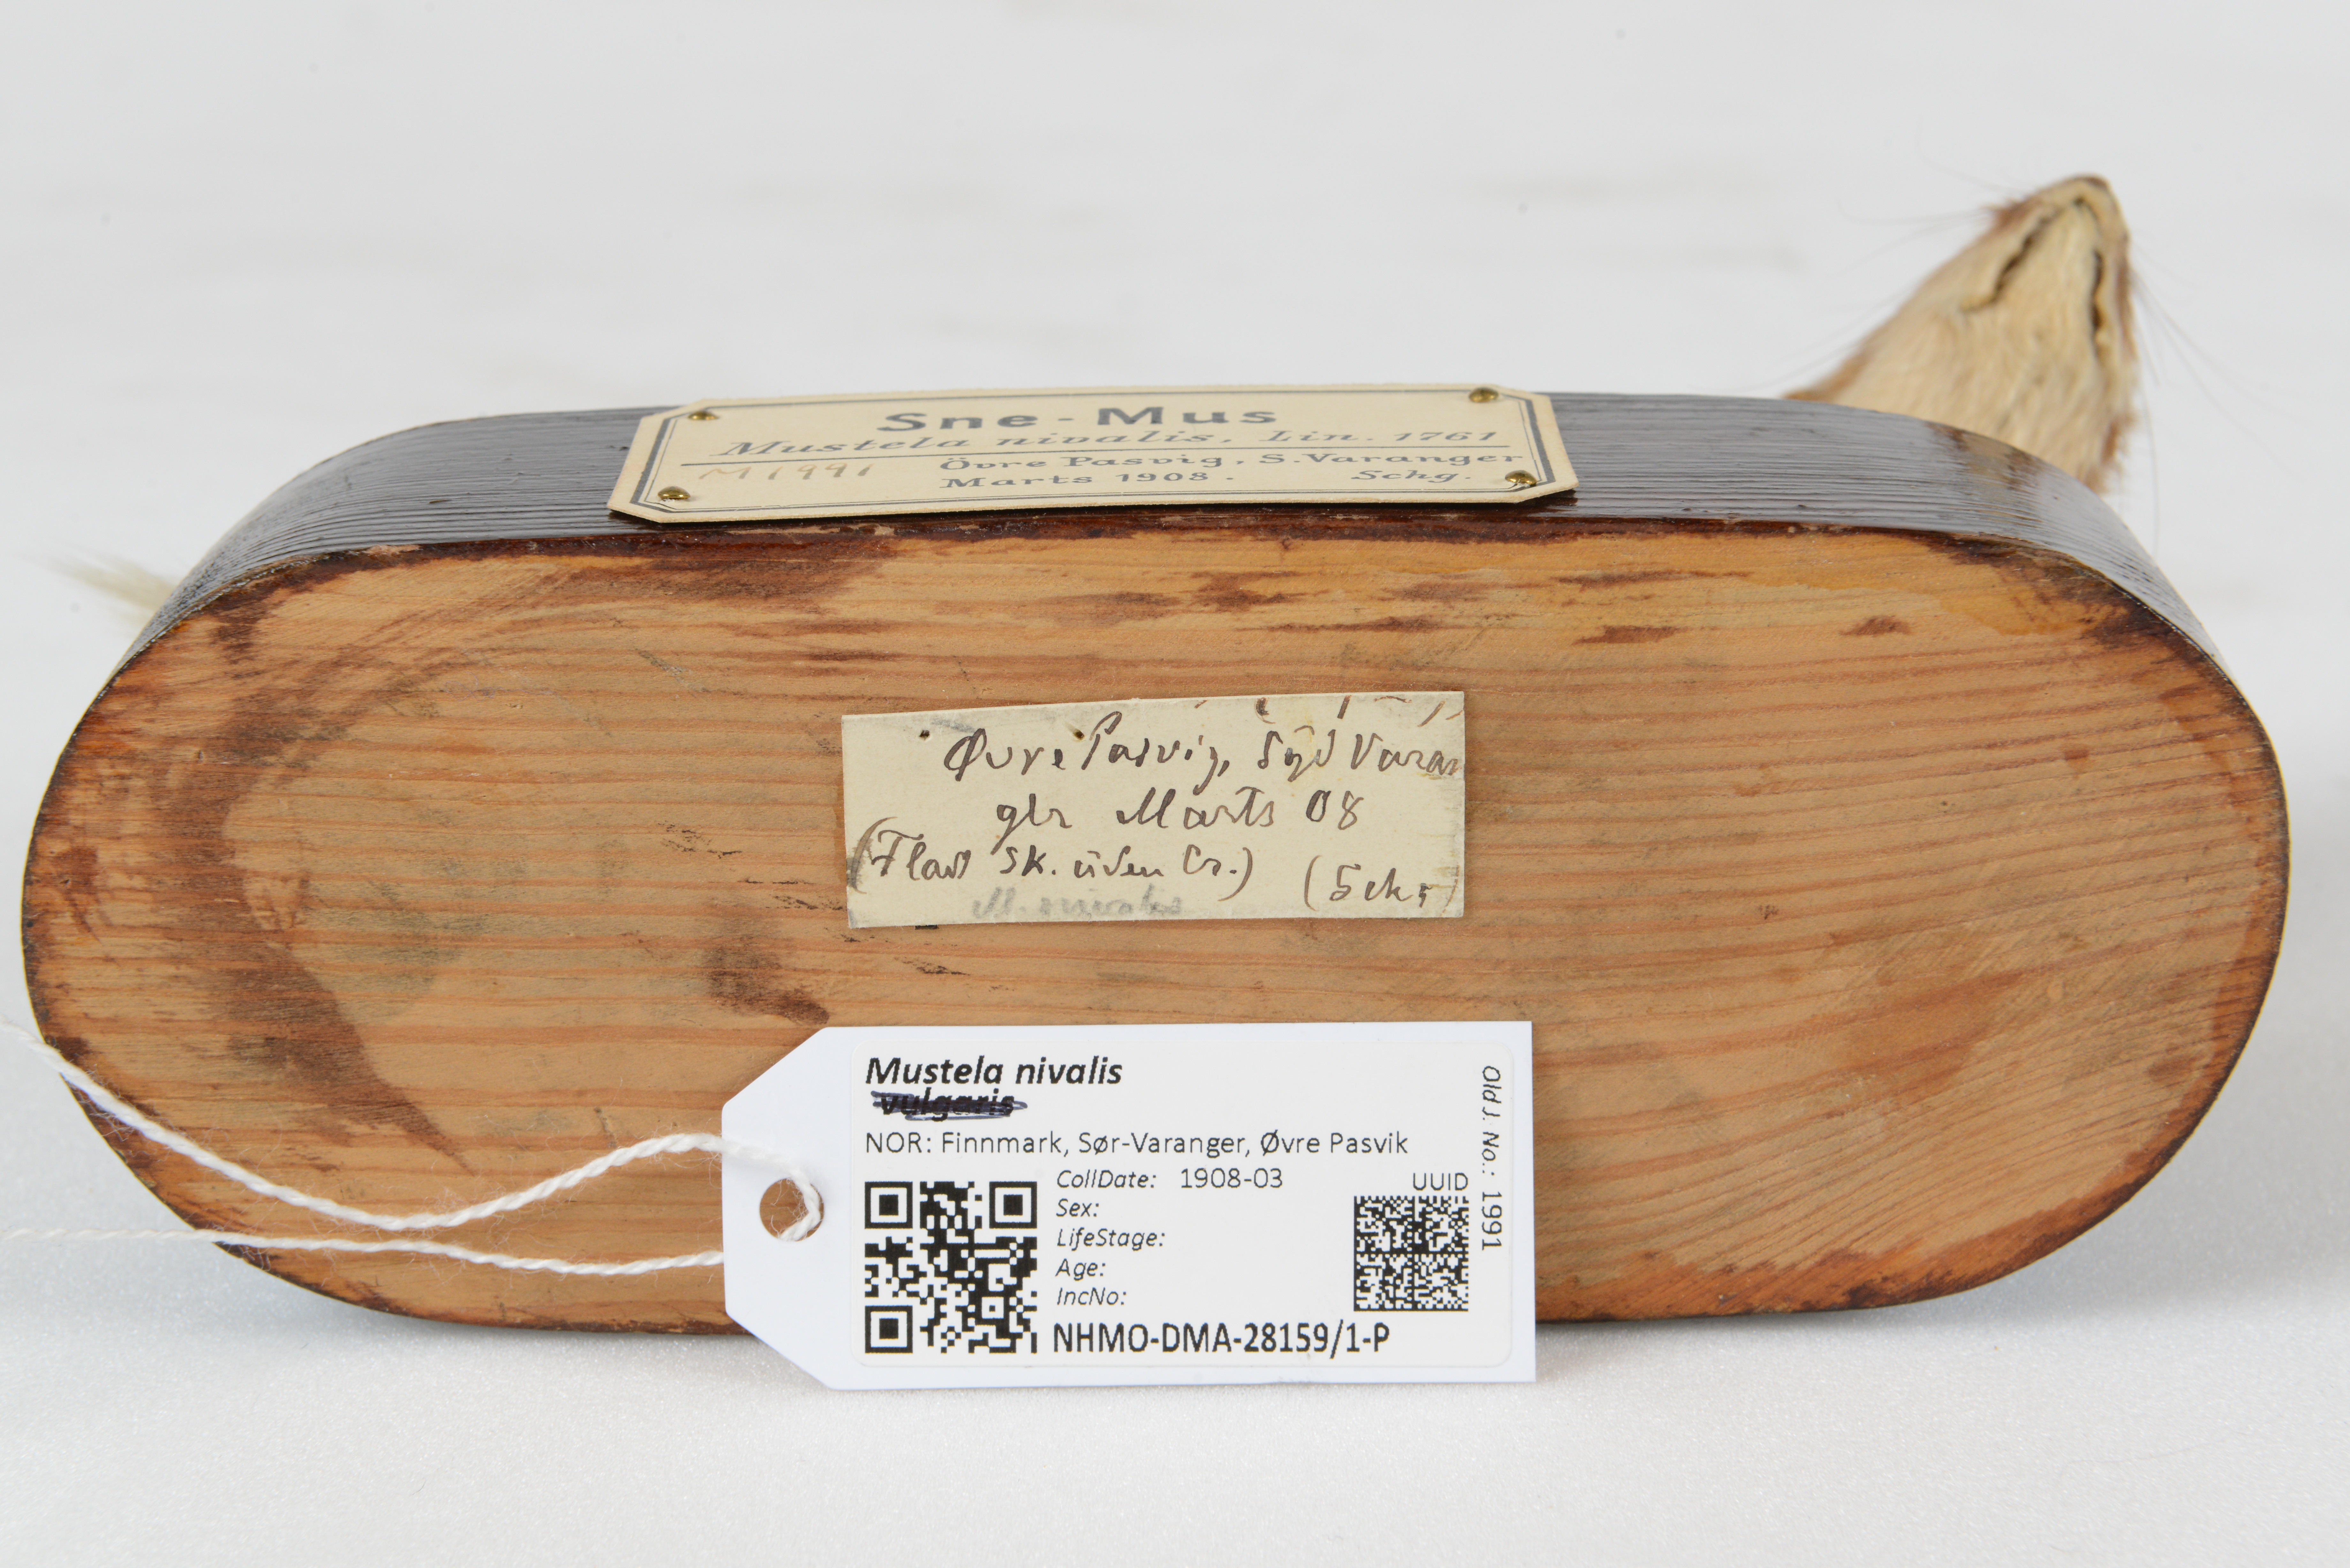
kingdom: Animalia
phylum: Chordata
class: Mammalia
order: Carnivora
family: Mustelidae
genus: Mustela
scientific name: Mustela nivalis
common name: Least weasel
